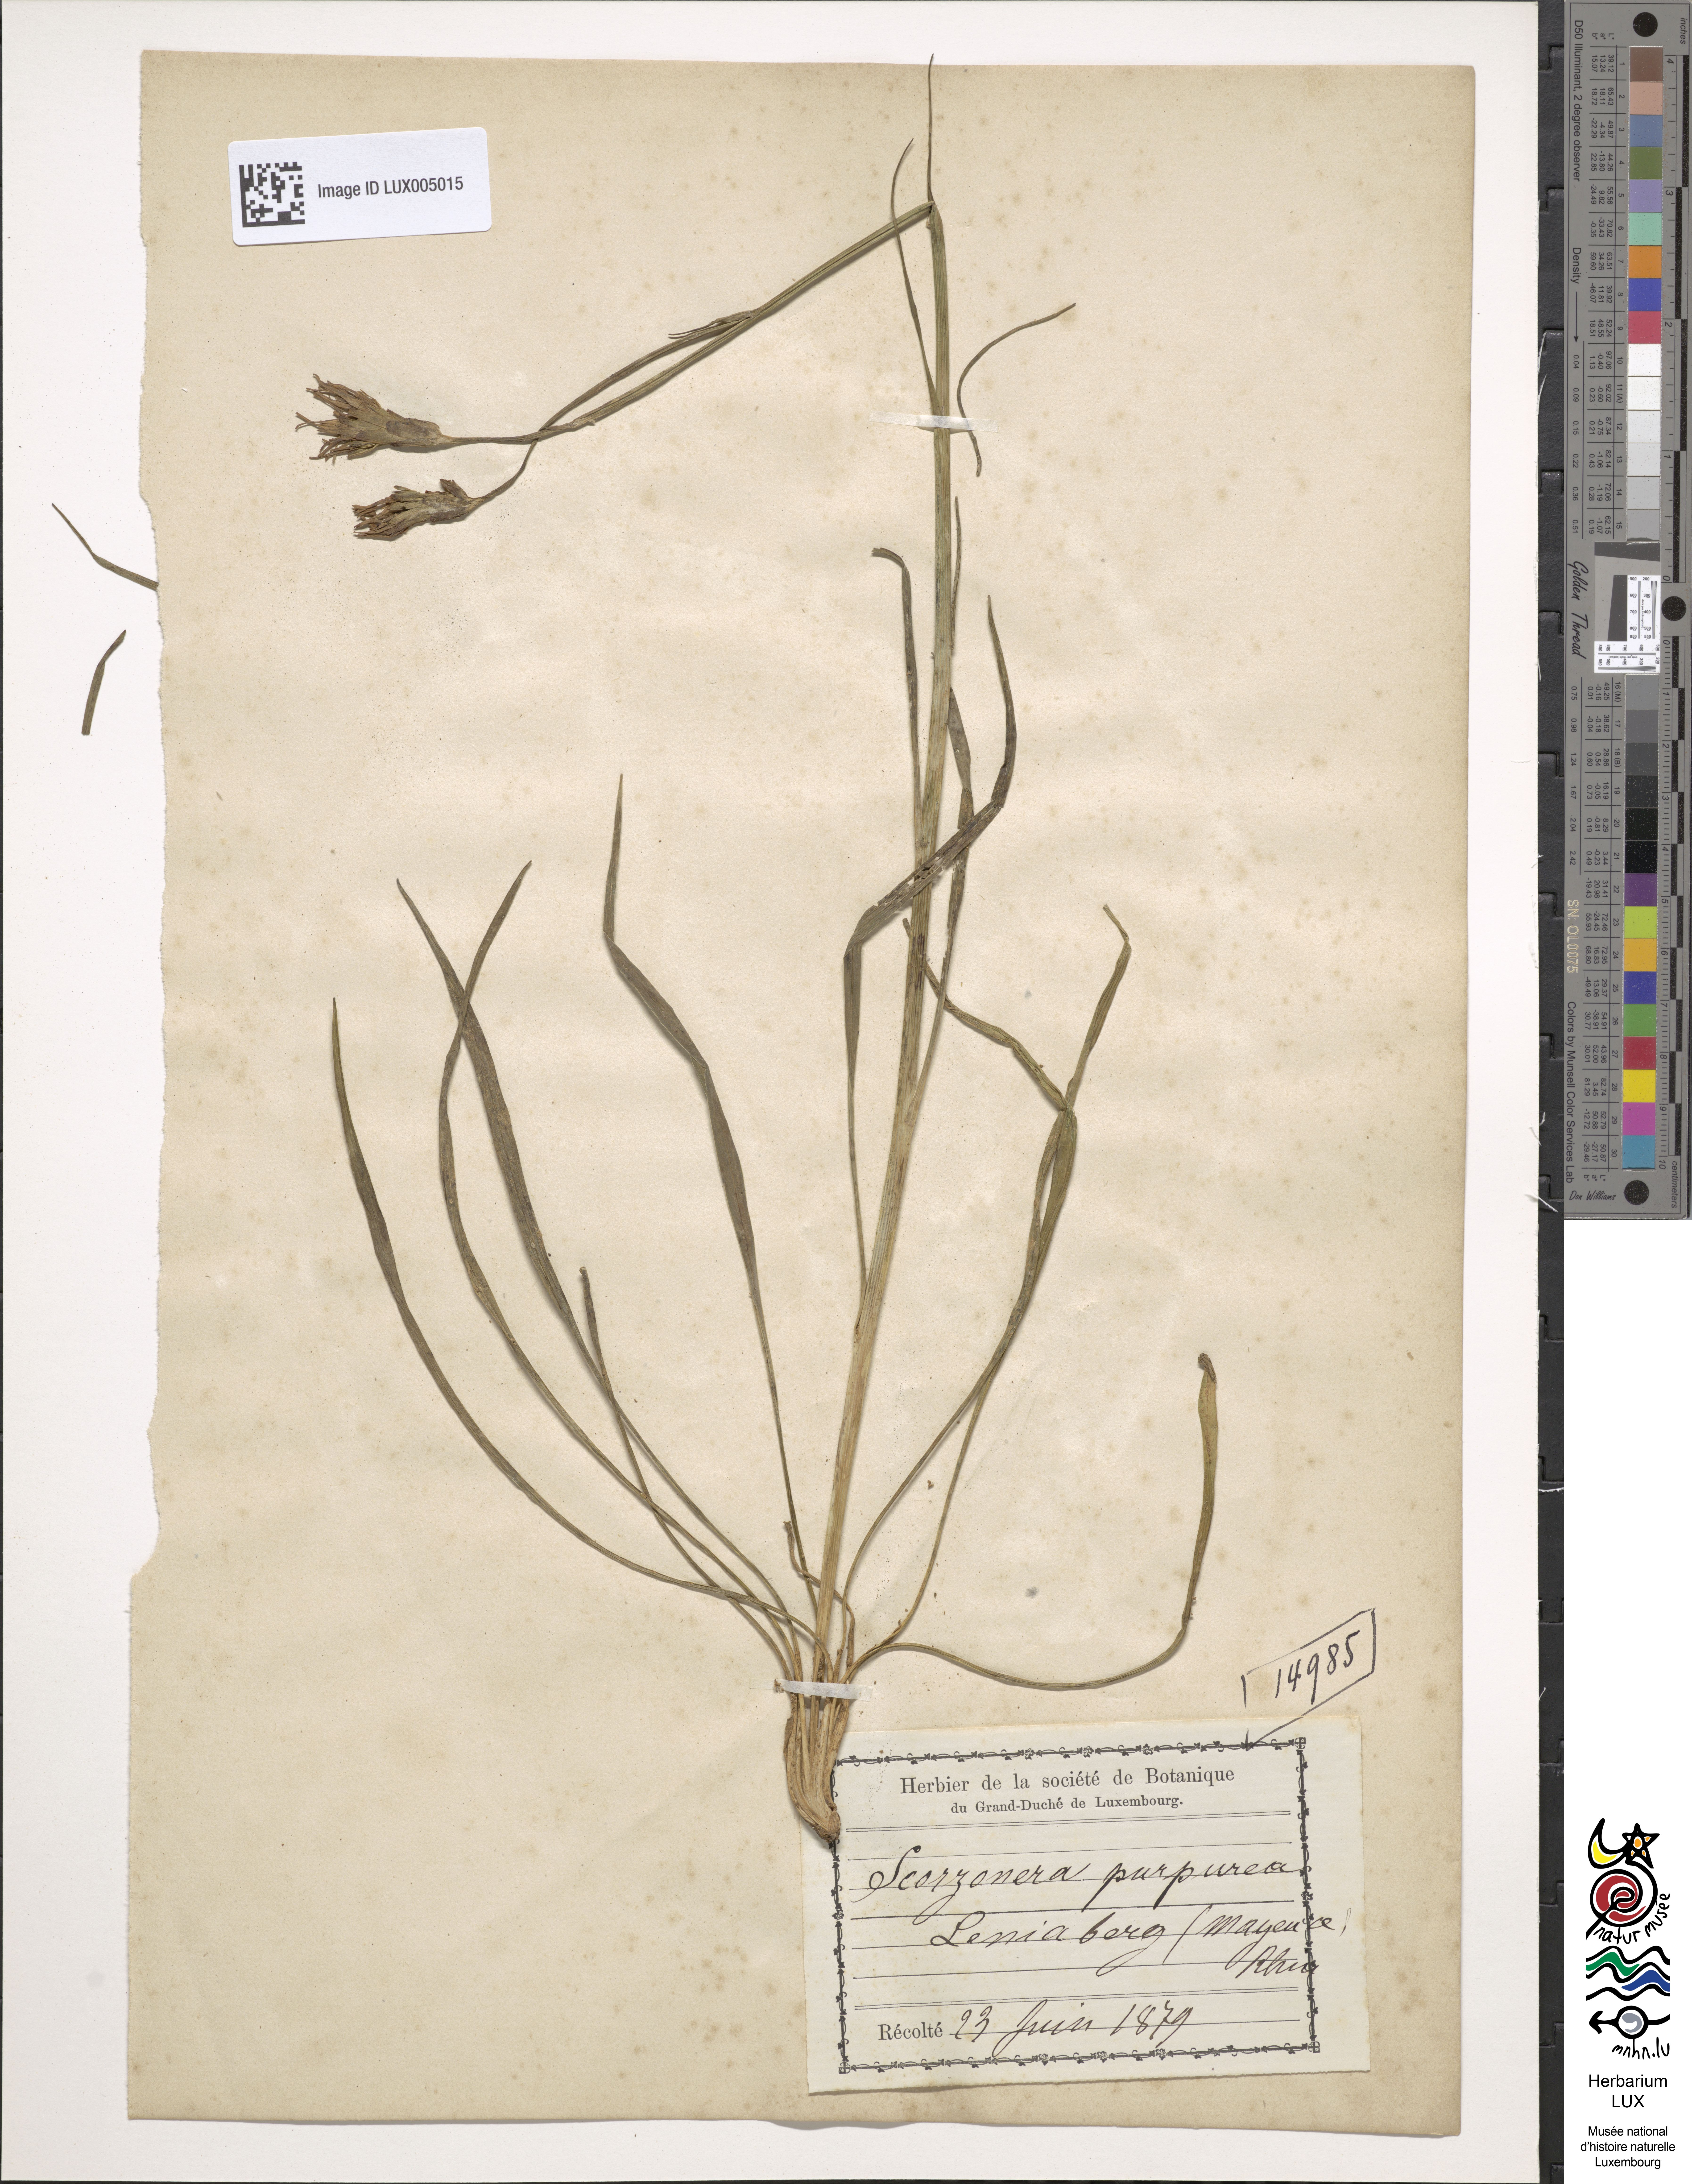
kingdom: Plantae
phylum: Tracheophyta
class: Magnoliopsida
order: Asterales
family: Asteraceae
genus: Scorzonera
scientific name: Scorzonera purpurea
